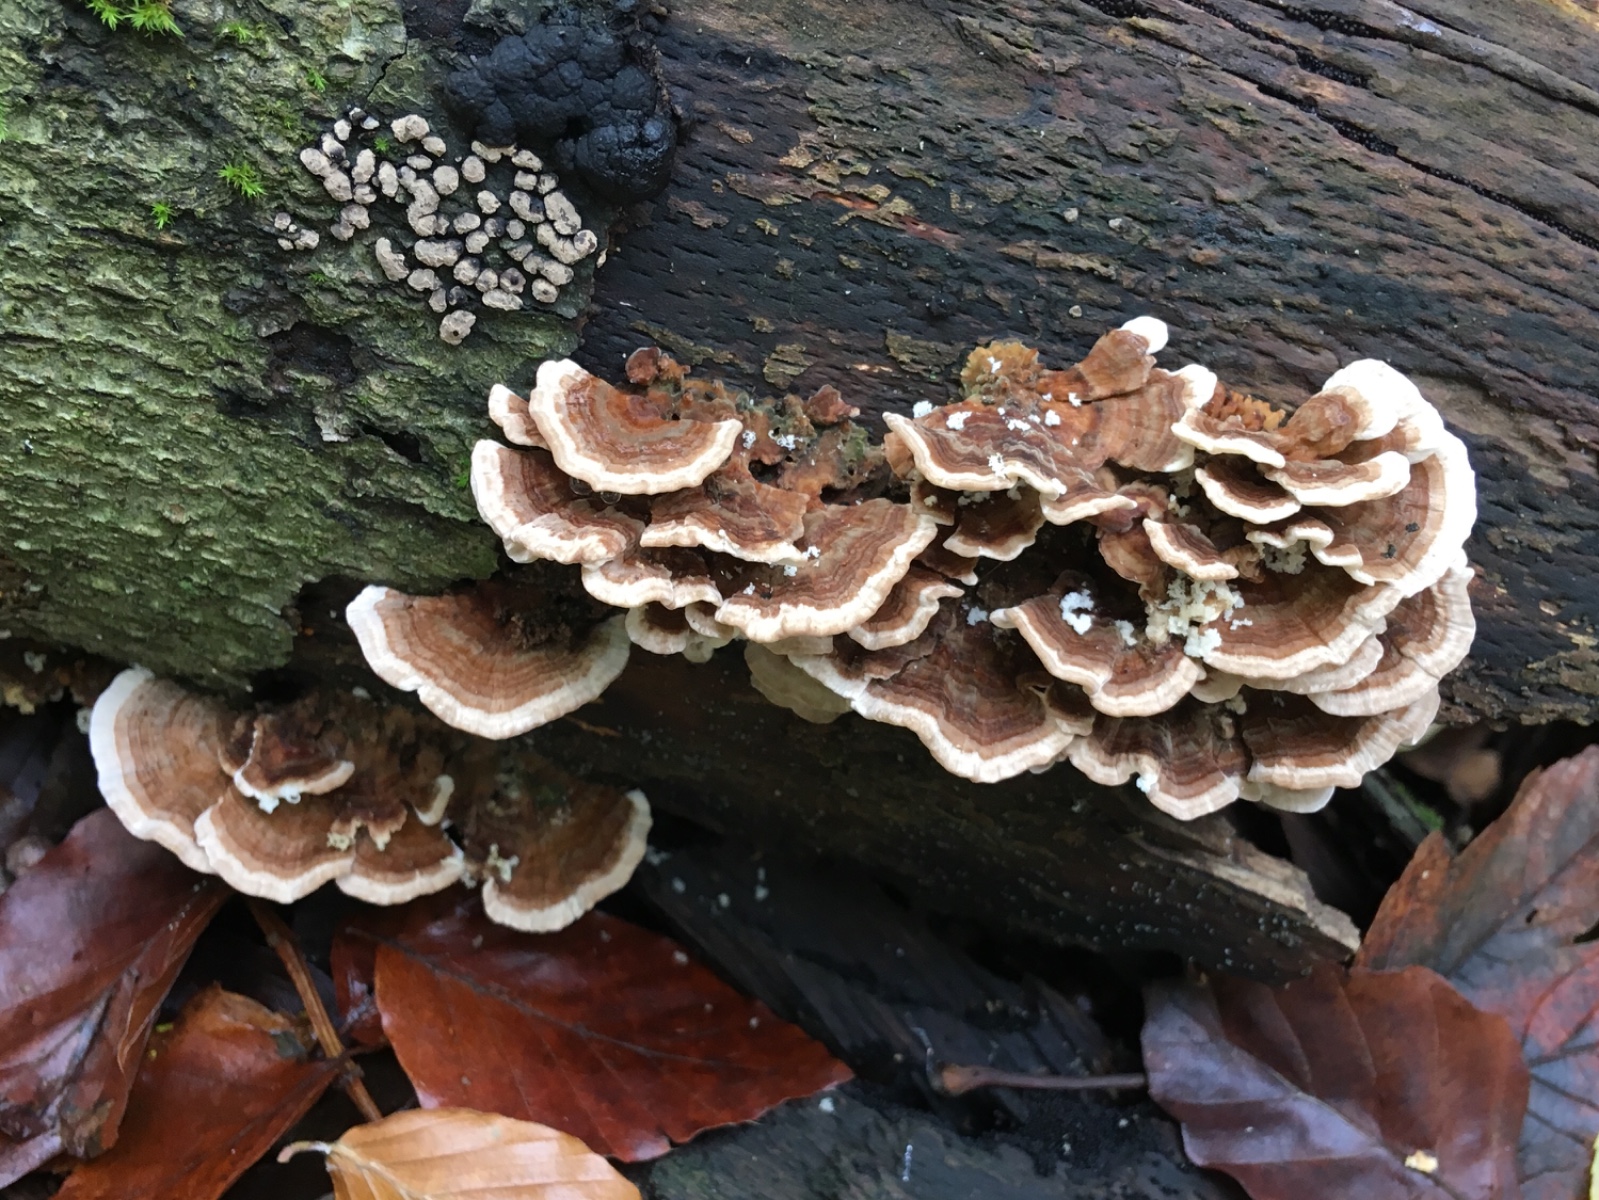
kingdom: Fungi
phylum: Basidiomycota
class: Agaricomycetes
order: Polyporales
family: Polyporaceae
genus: Trametes
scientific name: Trametes versicolor
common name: broget læderporesvamp
